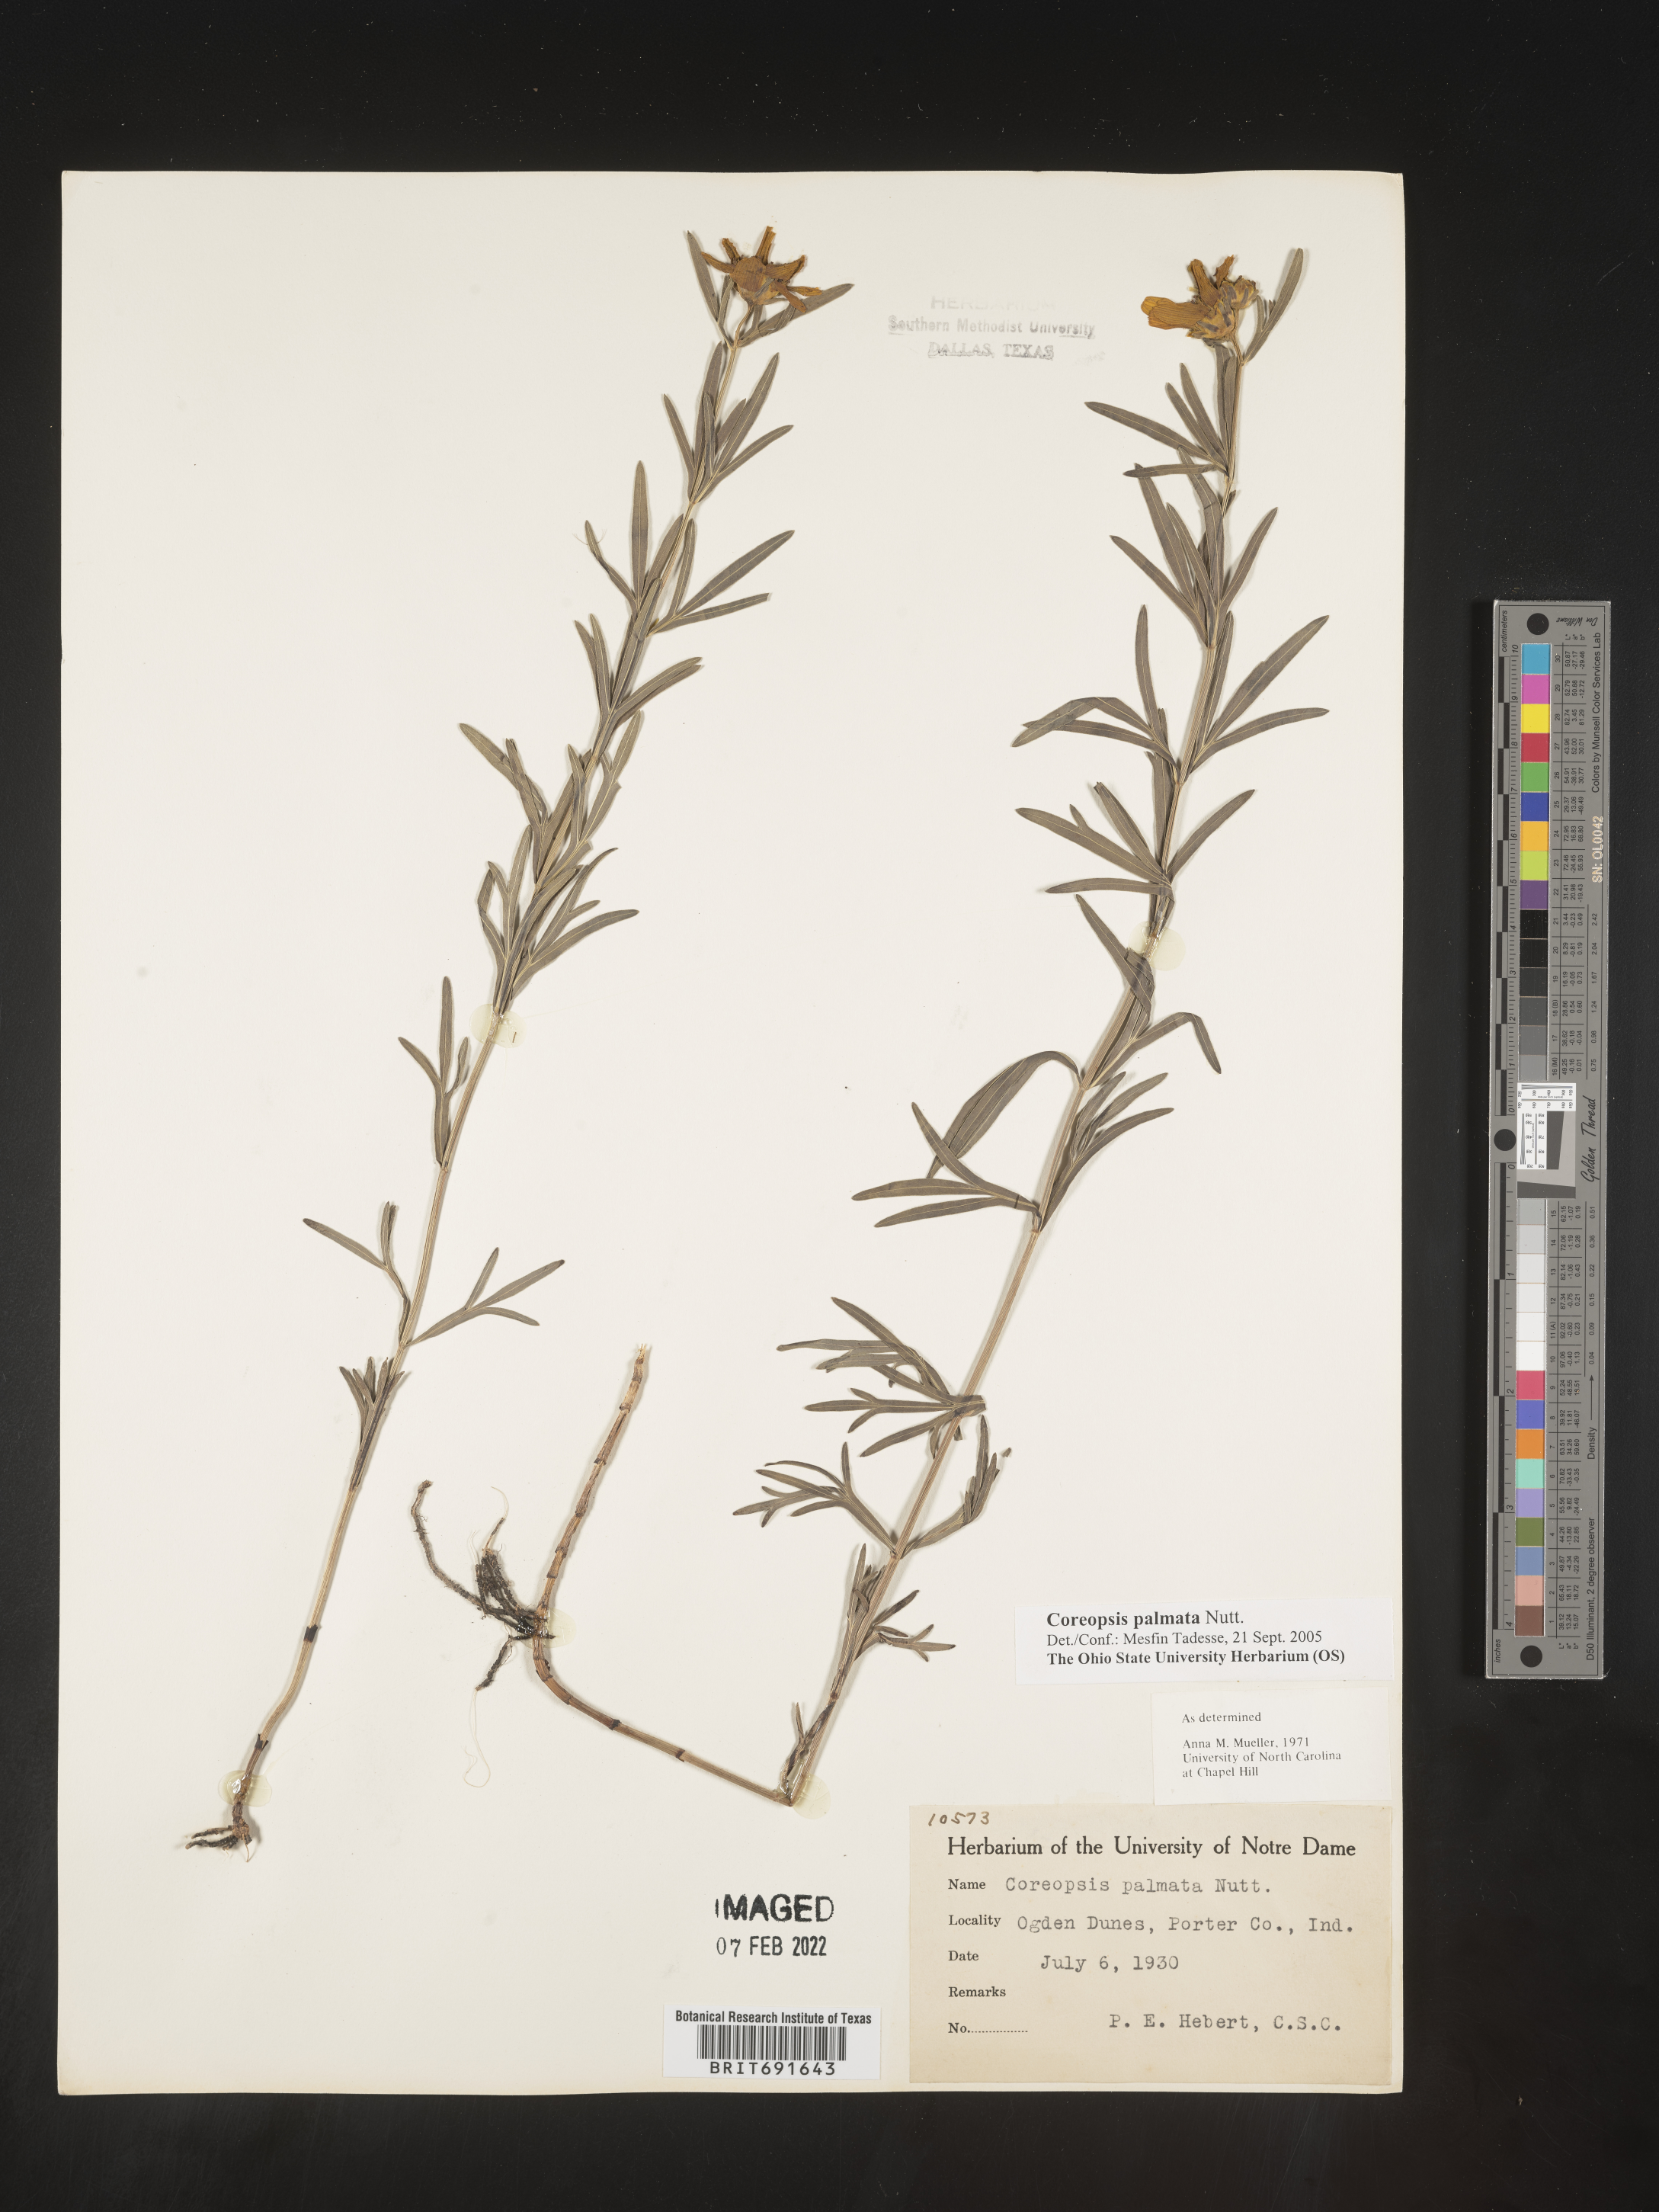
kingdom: Plantae
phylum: Tracheophyta
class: Magnoliopsida
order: Asterales
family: Asteraceae
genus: Coreopsis
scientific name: Coreopsis palmata
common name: Prairie coreopsis
